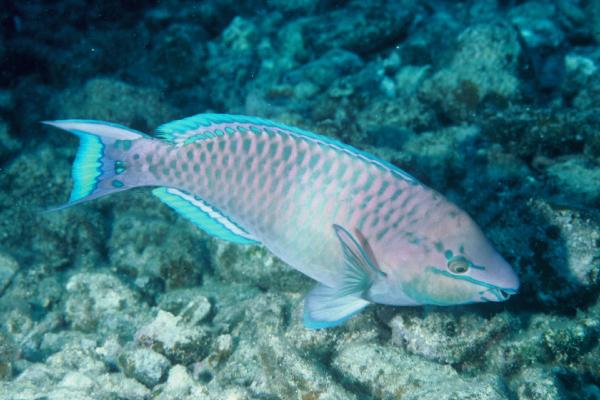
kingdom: Animalia
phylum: Chordata
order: Perciformes
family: Scaridae
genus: Scarus
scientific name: Scarus dubius
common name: Regal parrot
